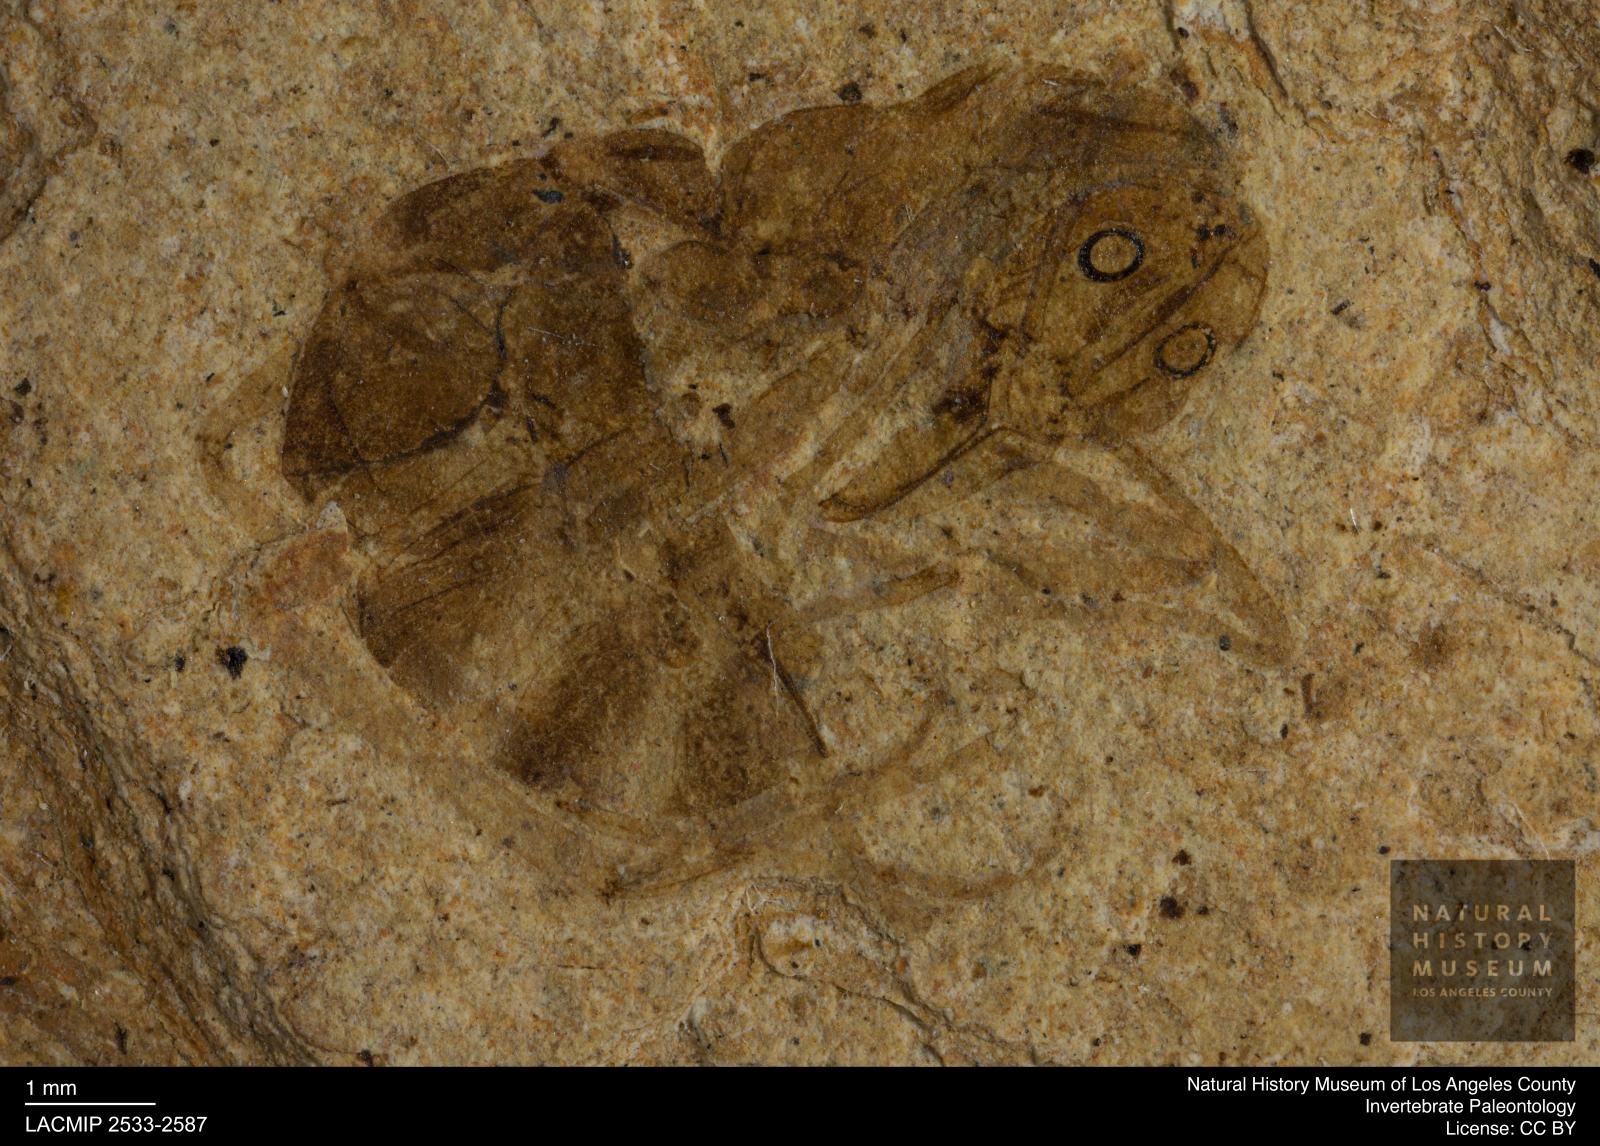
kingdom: Animalia
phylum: Arthropoda
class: Insecta
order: Hymenoptera
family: Formicidae
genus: Prionomyrmex
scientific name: Prionomyrmex wappleri
